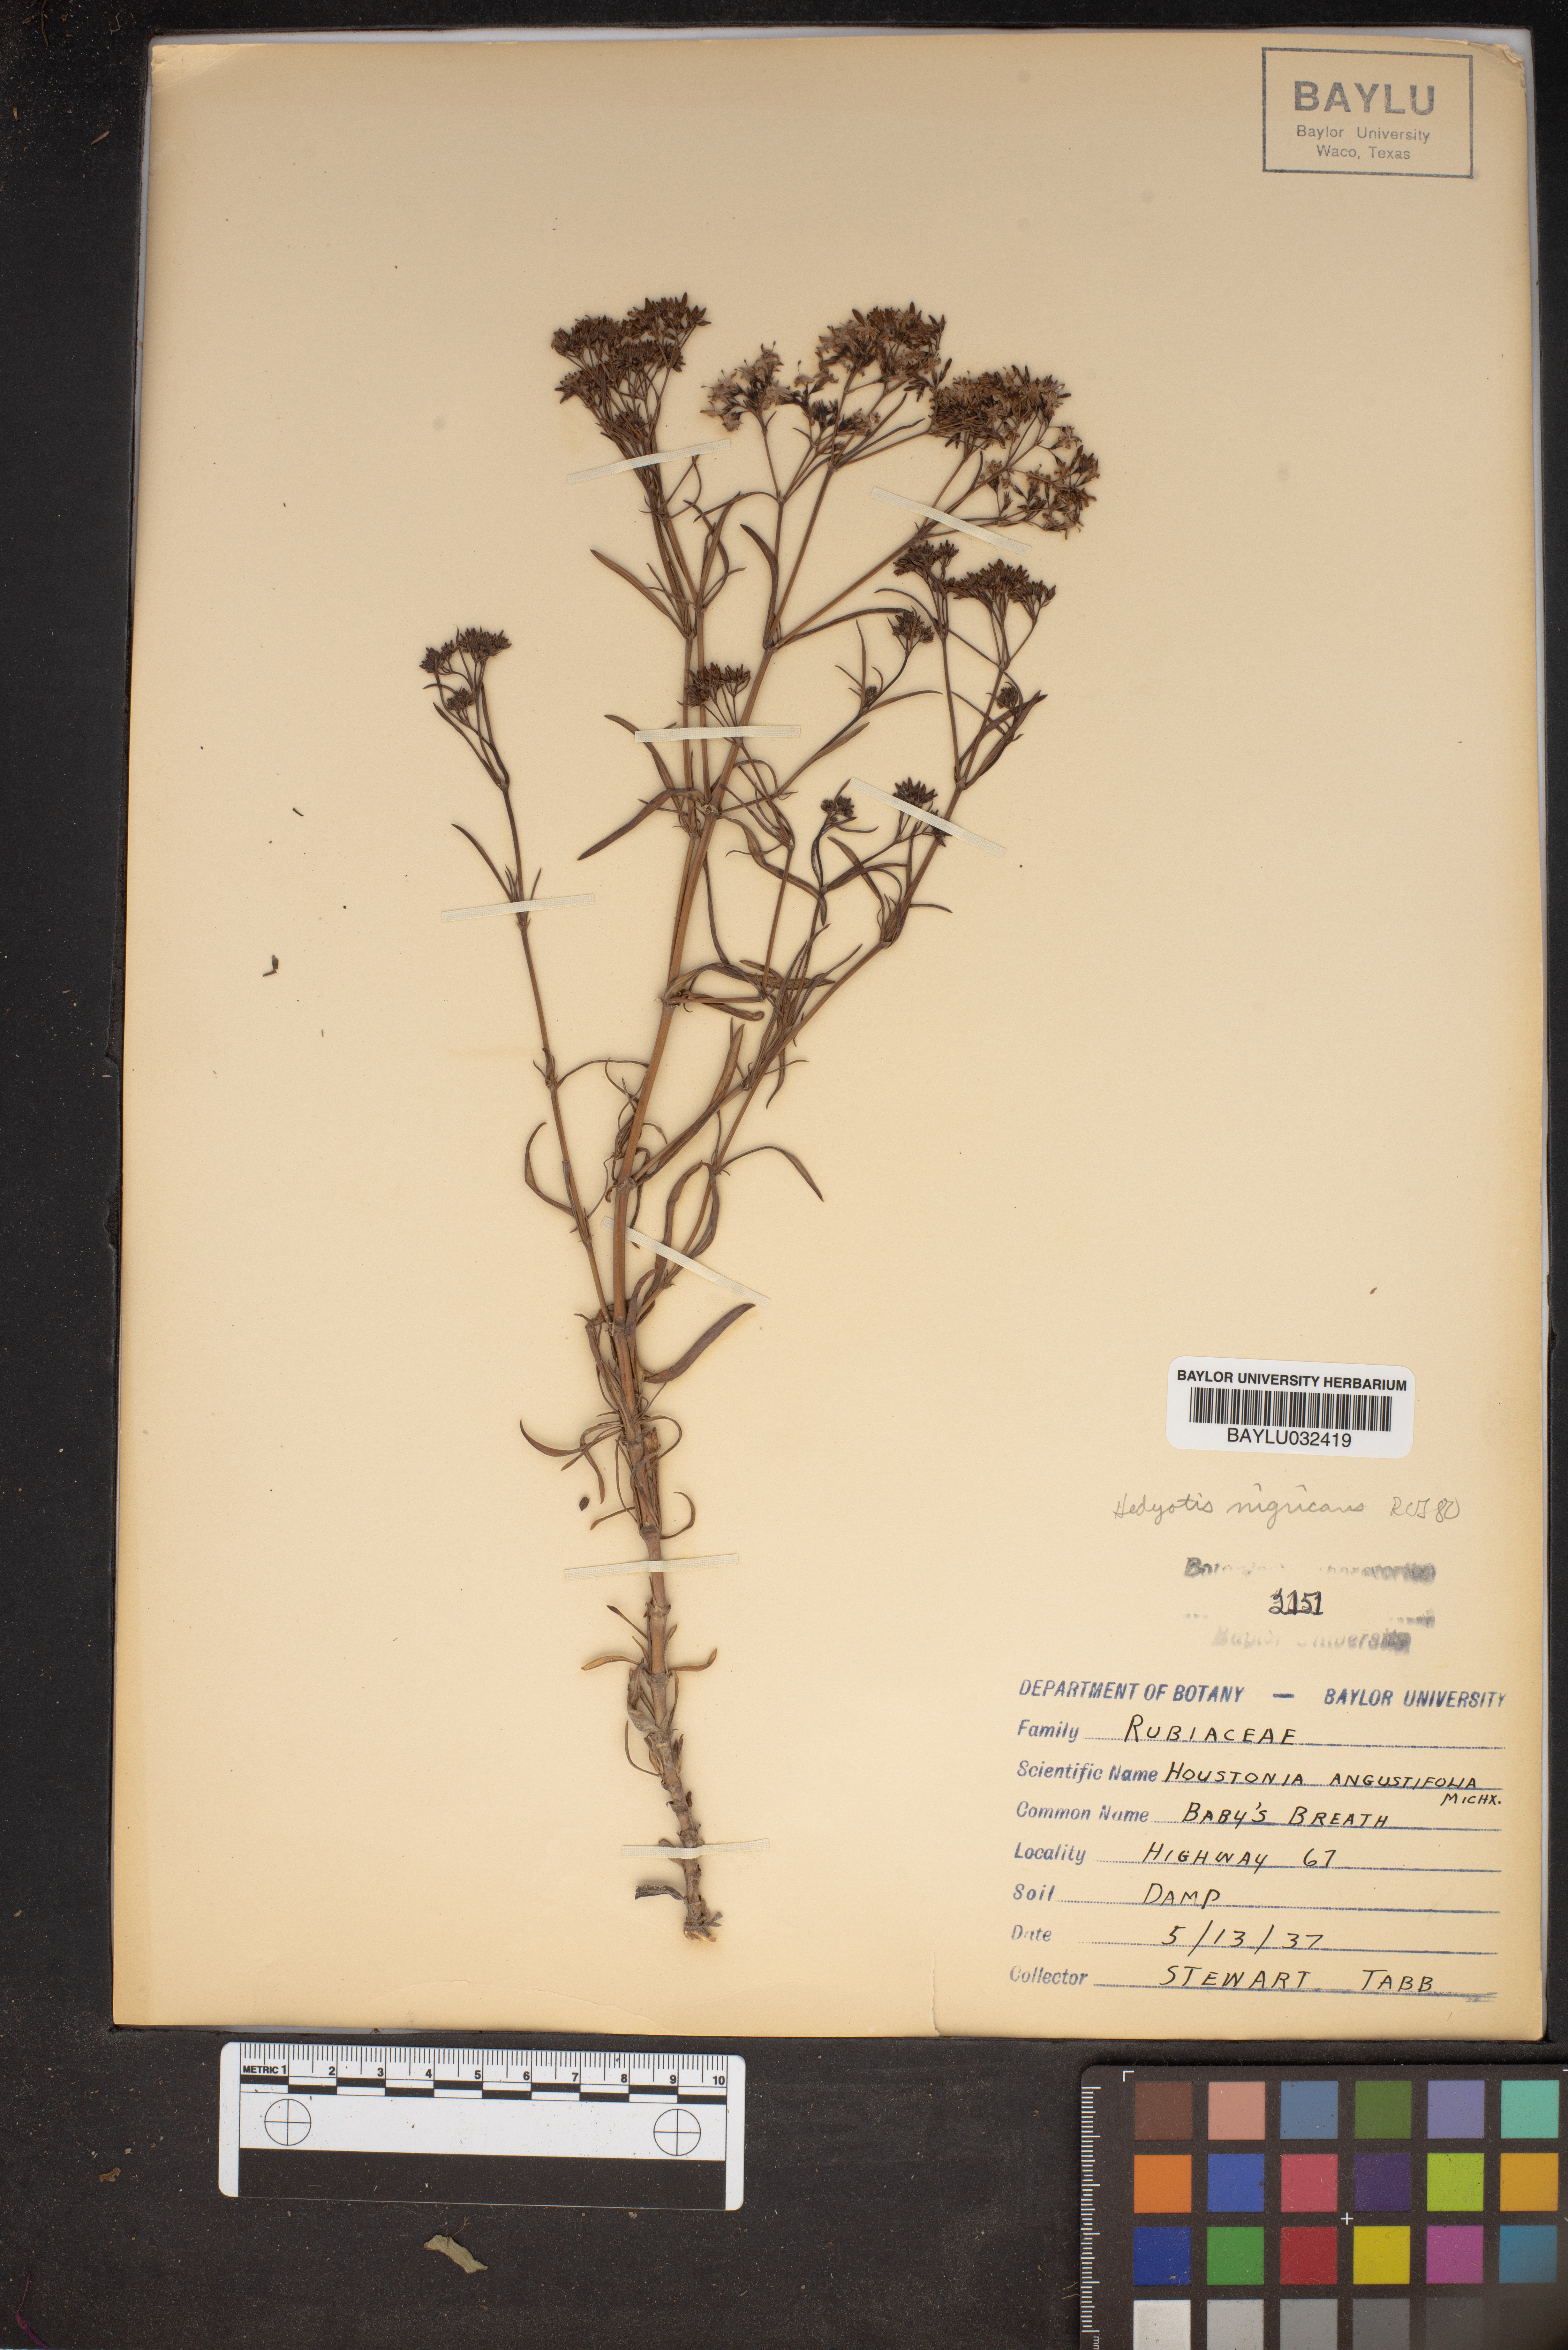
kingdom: Plantae
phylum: Tracheophyta
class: Magnoliopsida
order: Gentianales
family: Rubiaceae
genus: Stenaria
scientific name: Stenaria nigricans
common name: Diamondflowers
